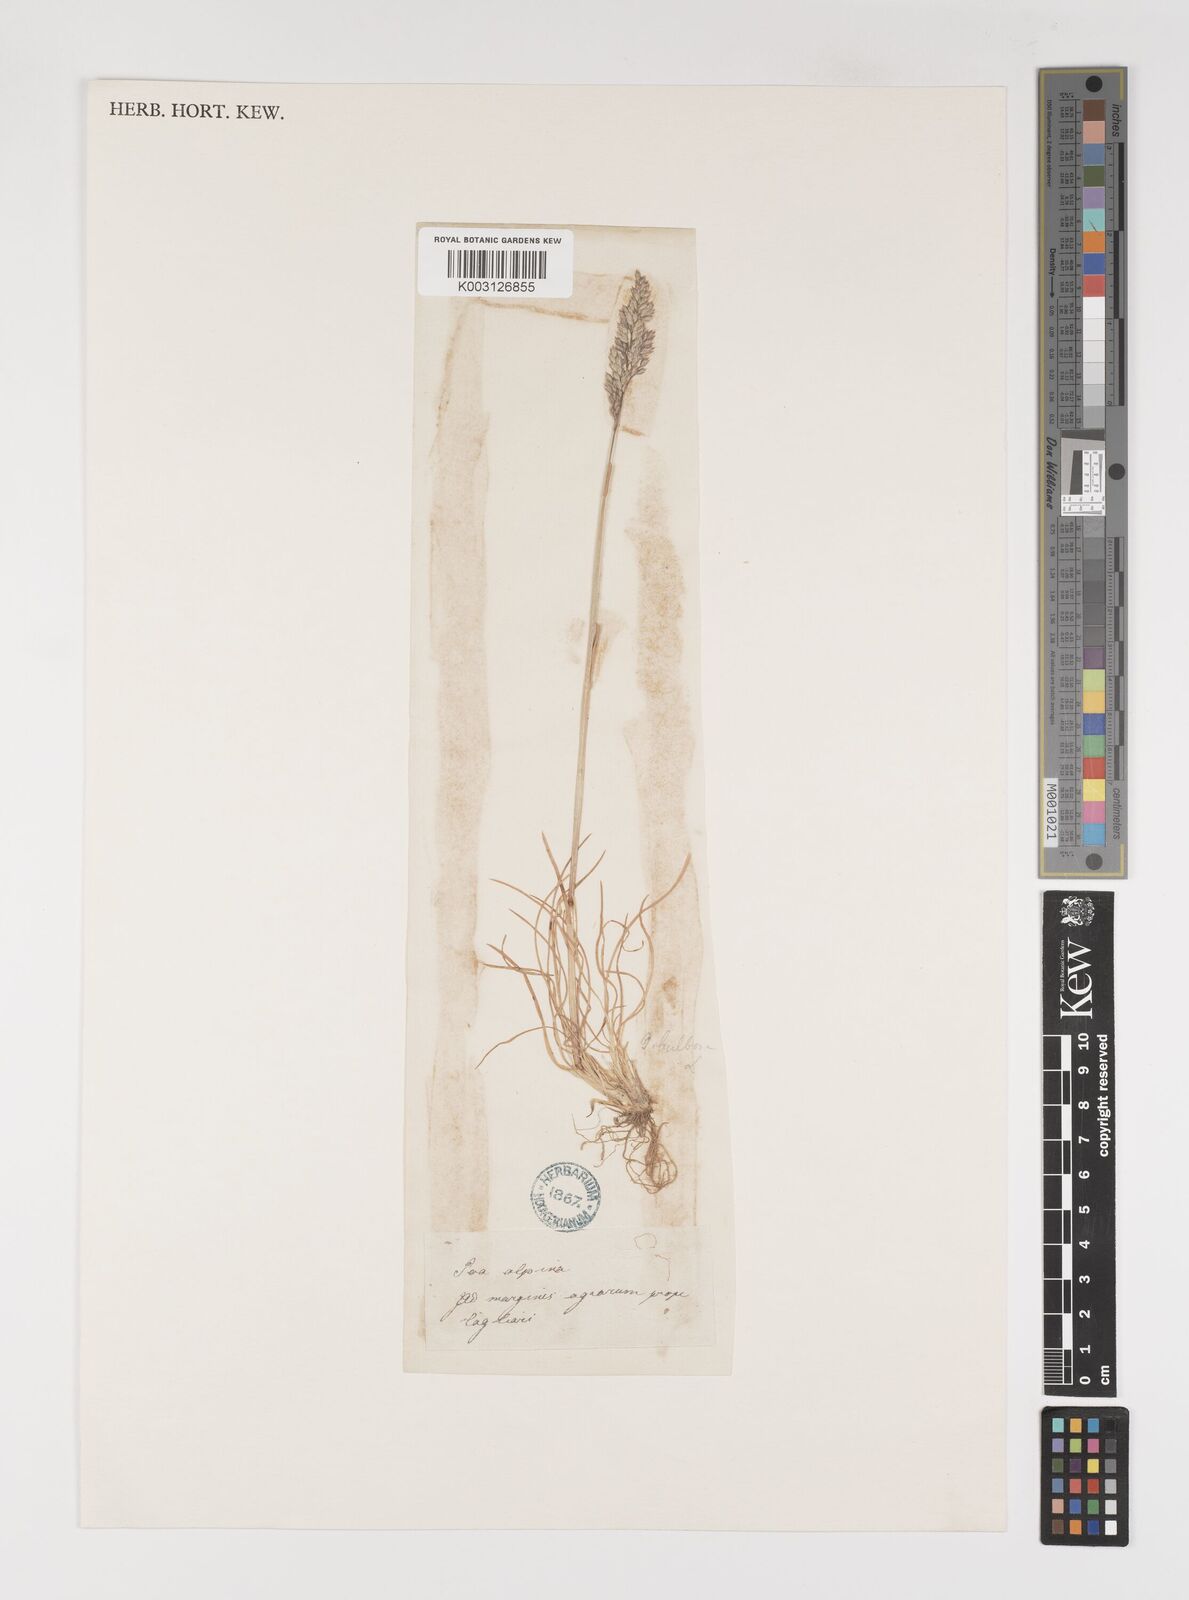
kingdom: Plantae
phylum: Tracheophyta
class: Liliopsida
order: Poales
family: Poaceae
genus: Poa
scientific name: Poa bulbosa
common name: Bulbous bluegrass
